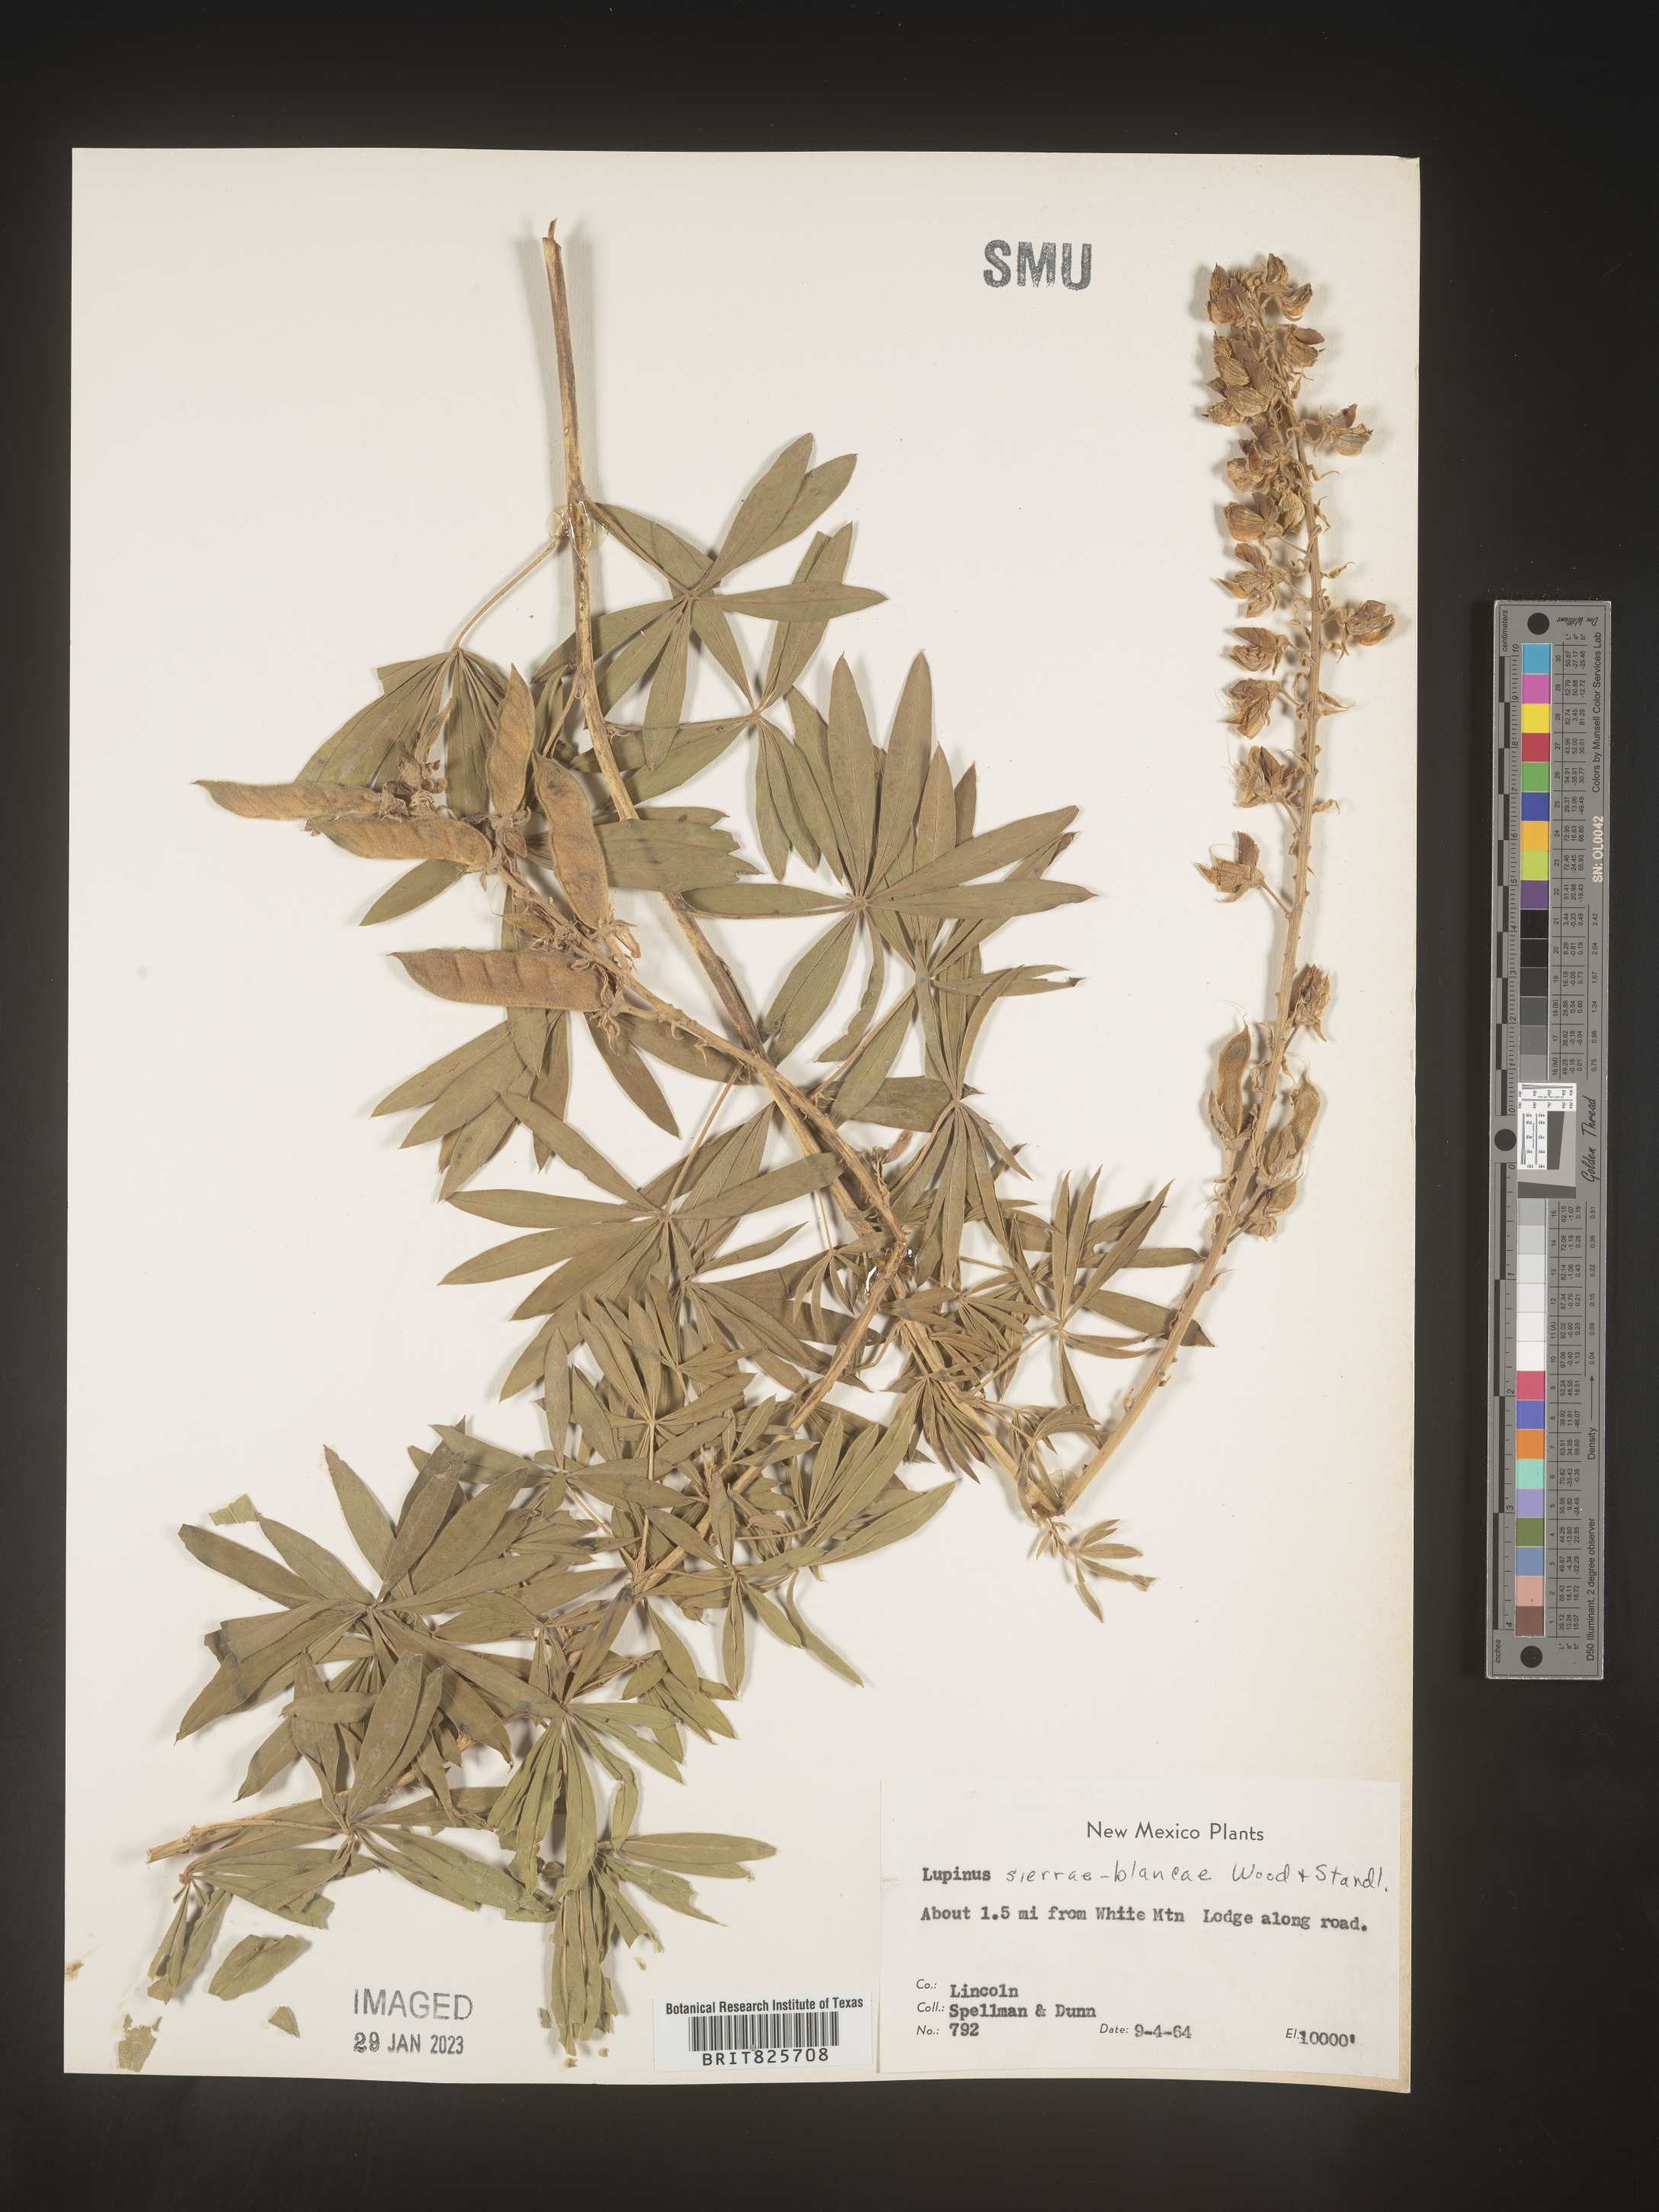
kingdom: Plantae
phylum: Tracheophyta
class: Magnoliopsida
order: Fabales
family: Fabaceae
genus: Lupinus
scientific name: Lupinus
